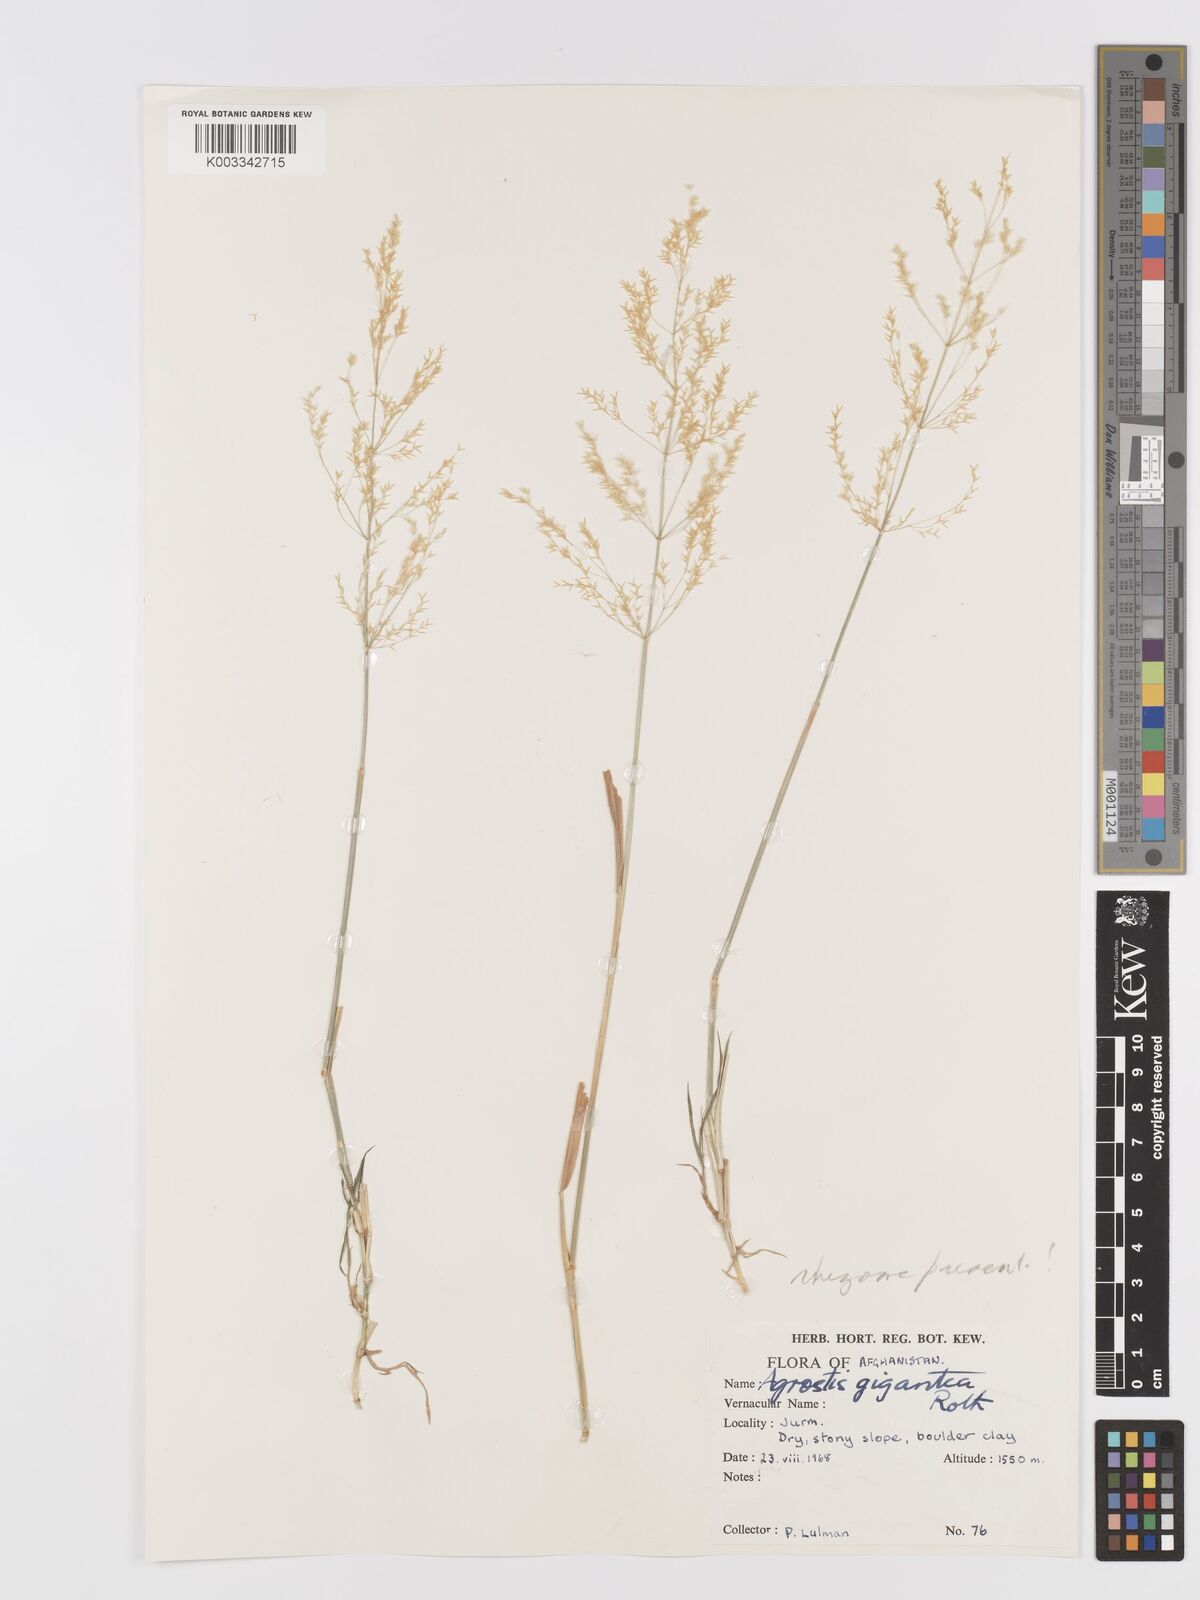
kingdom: Plantae
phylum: Tracheophyta
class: Liliopsida
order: Poales
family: Poaceae
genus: Agrostis
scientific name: Agrostis gigantea
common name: Black bent
